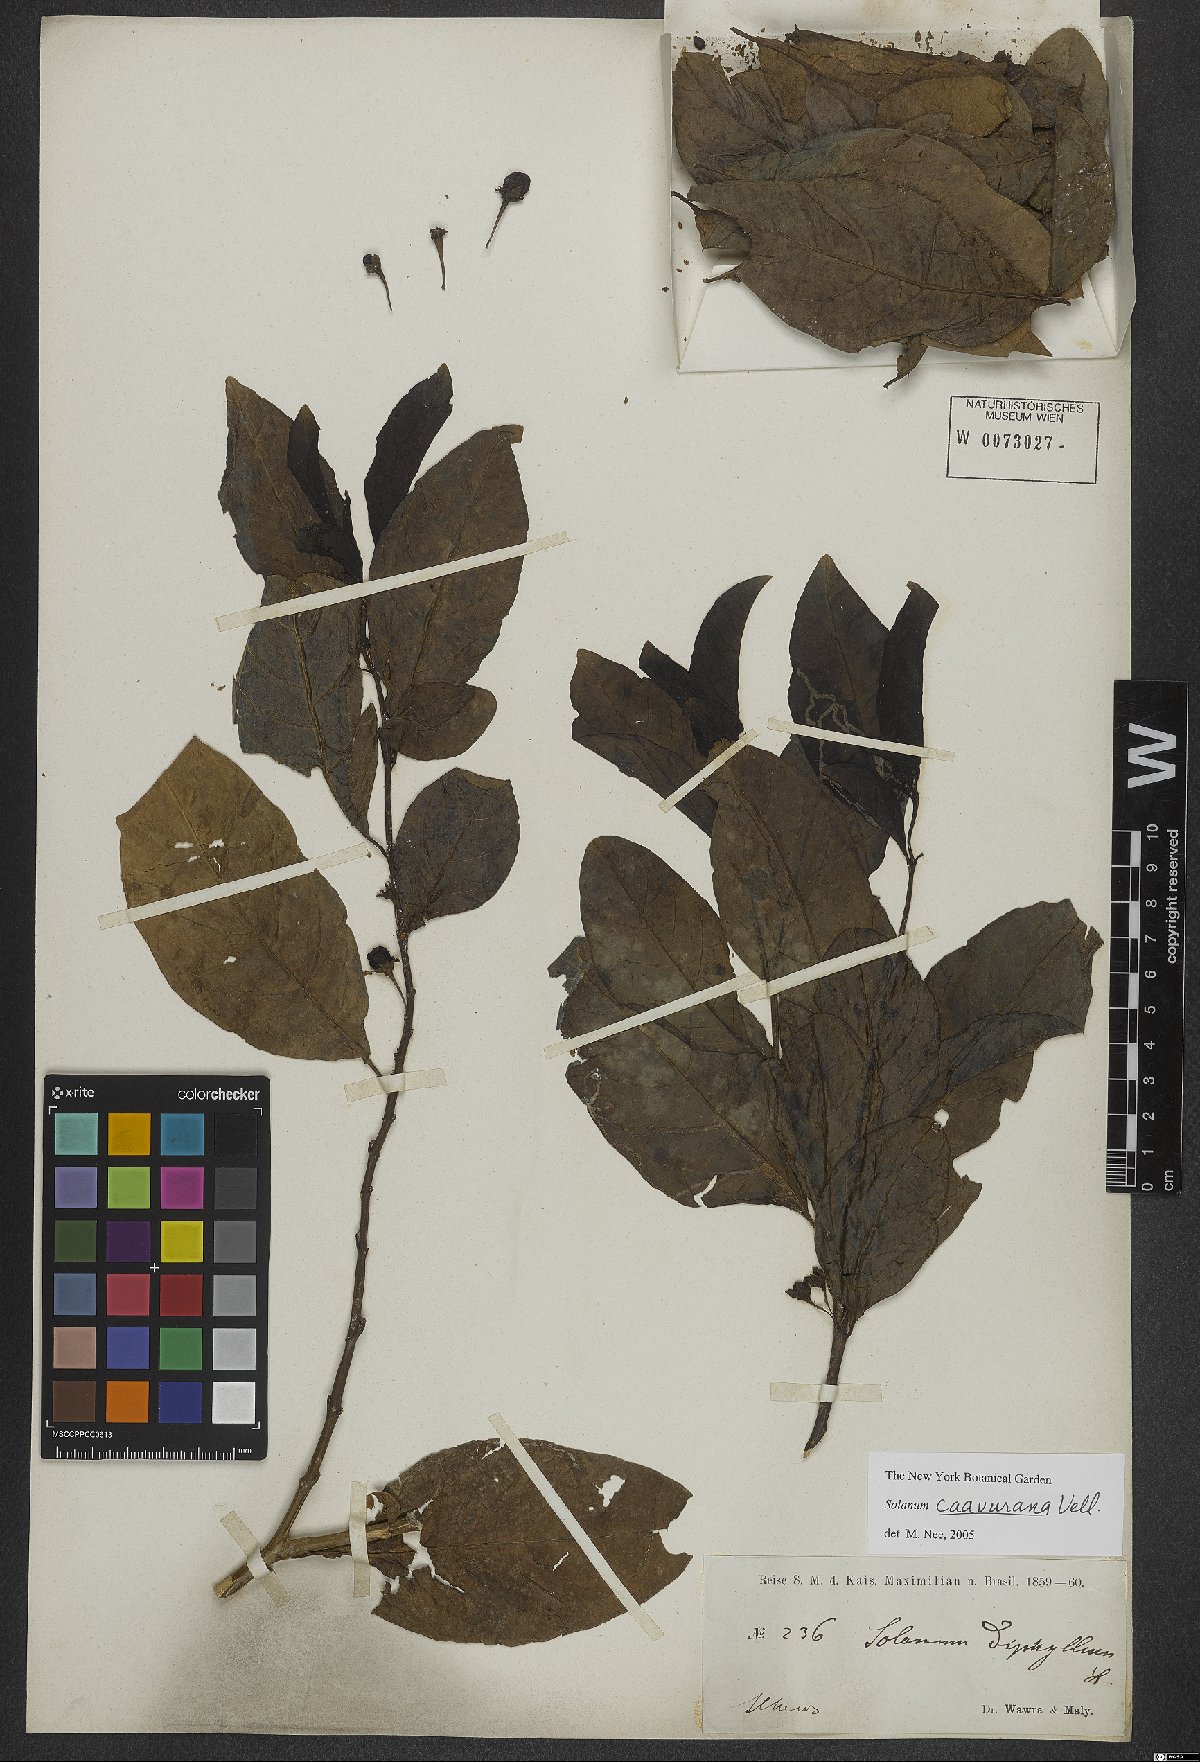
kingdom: Plantae
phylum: Tracheophyta
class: Magnoliopsida
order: Solanales
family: Solanaceae
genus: Solanum
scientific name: Solanum caavurana
